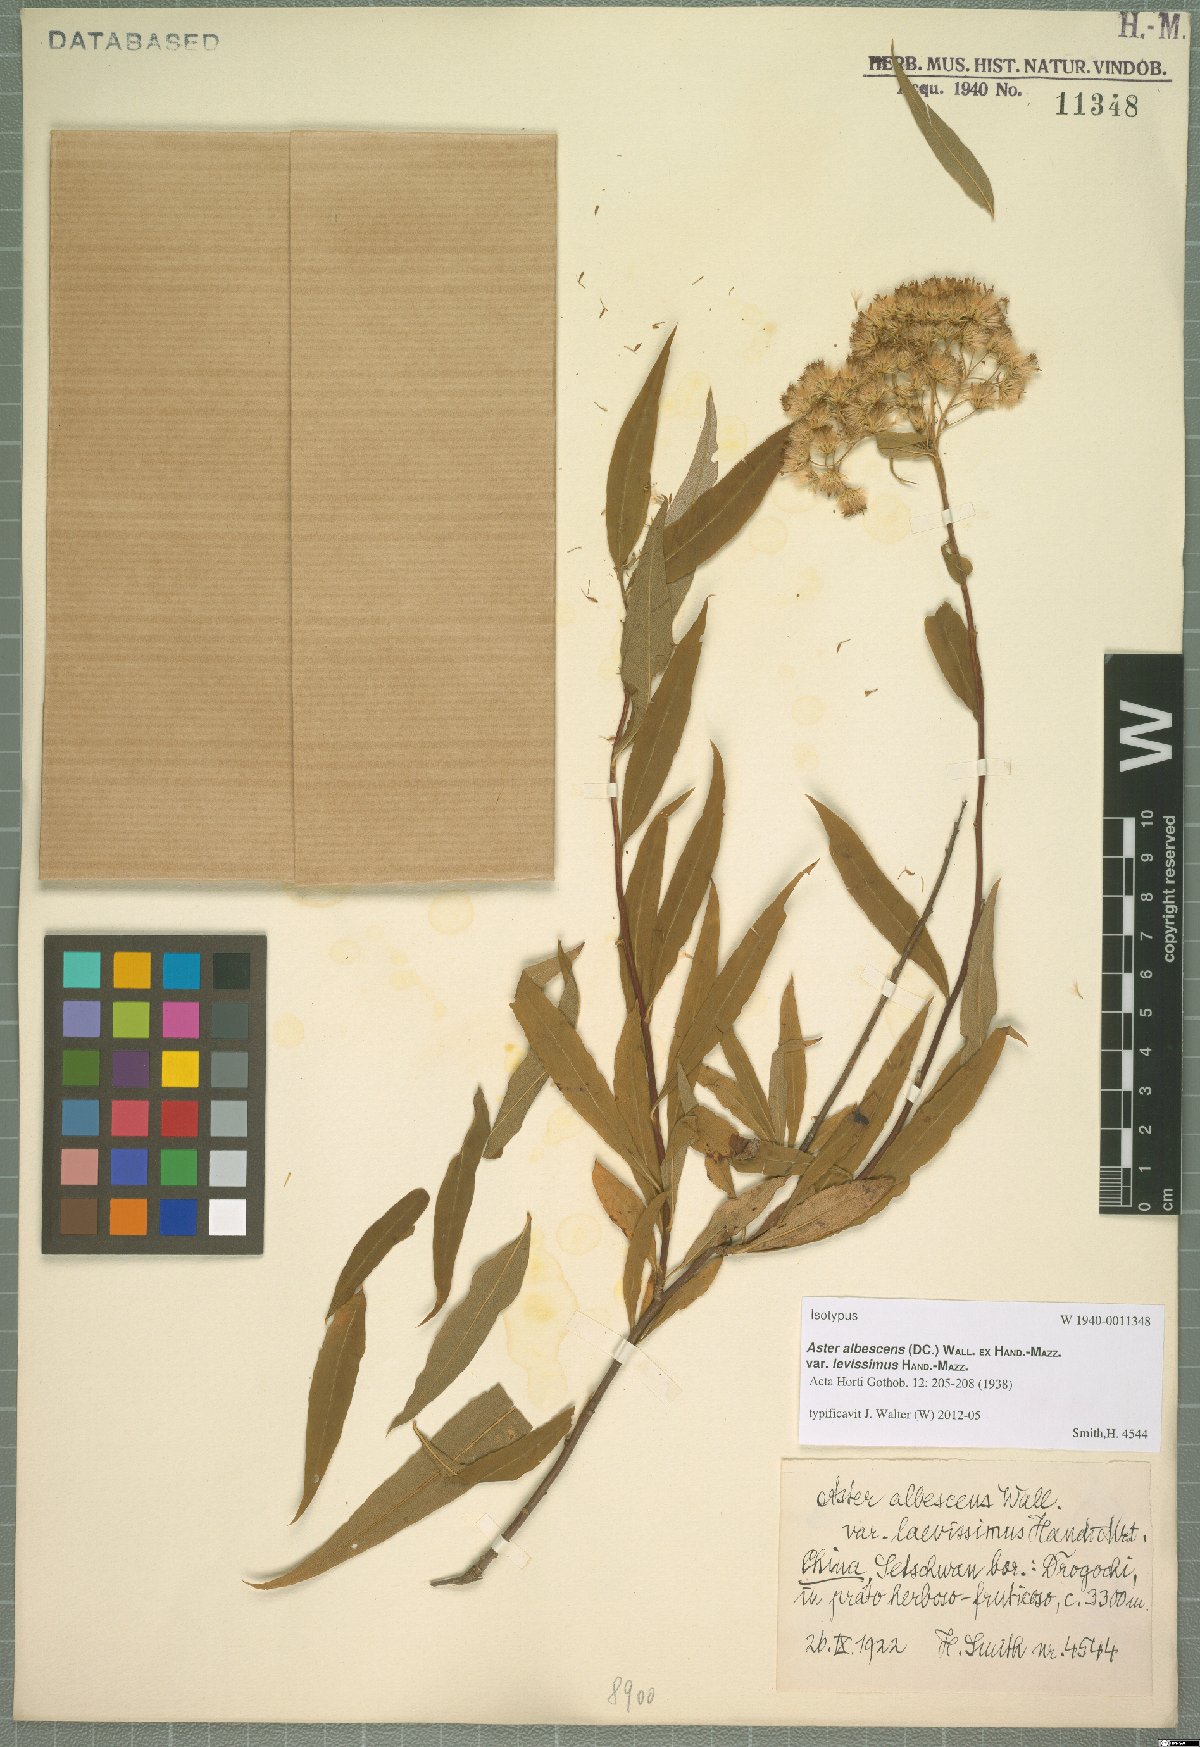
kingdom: Plantae
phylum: Tracheophyta
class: Magnoliopsida
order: Asterales
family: Asteraceae
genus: Sinosidus
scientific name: Sinosidus albescens
